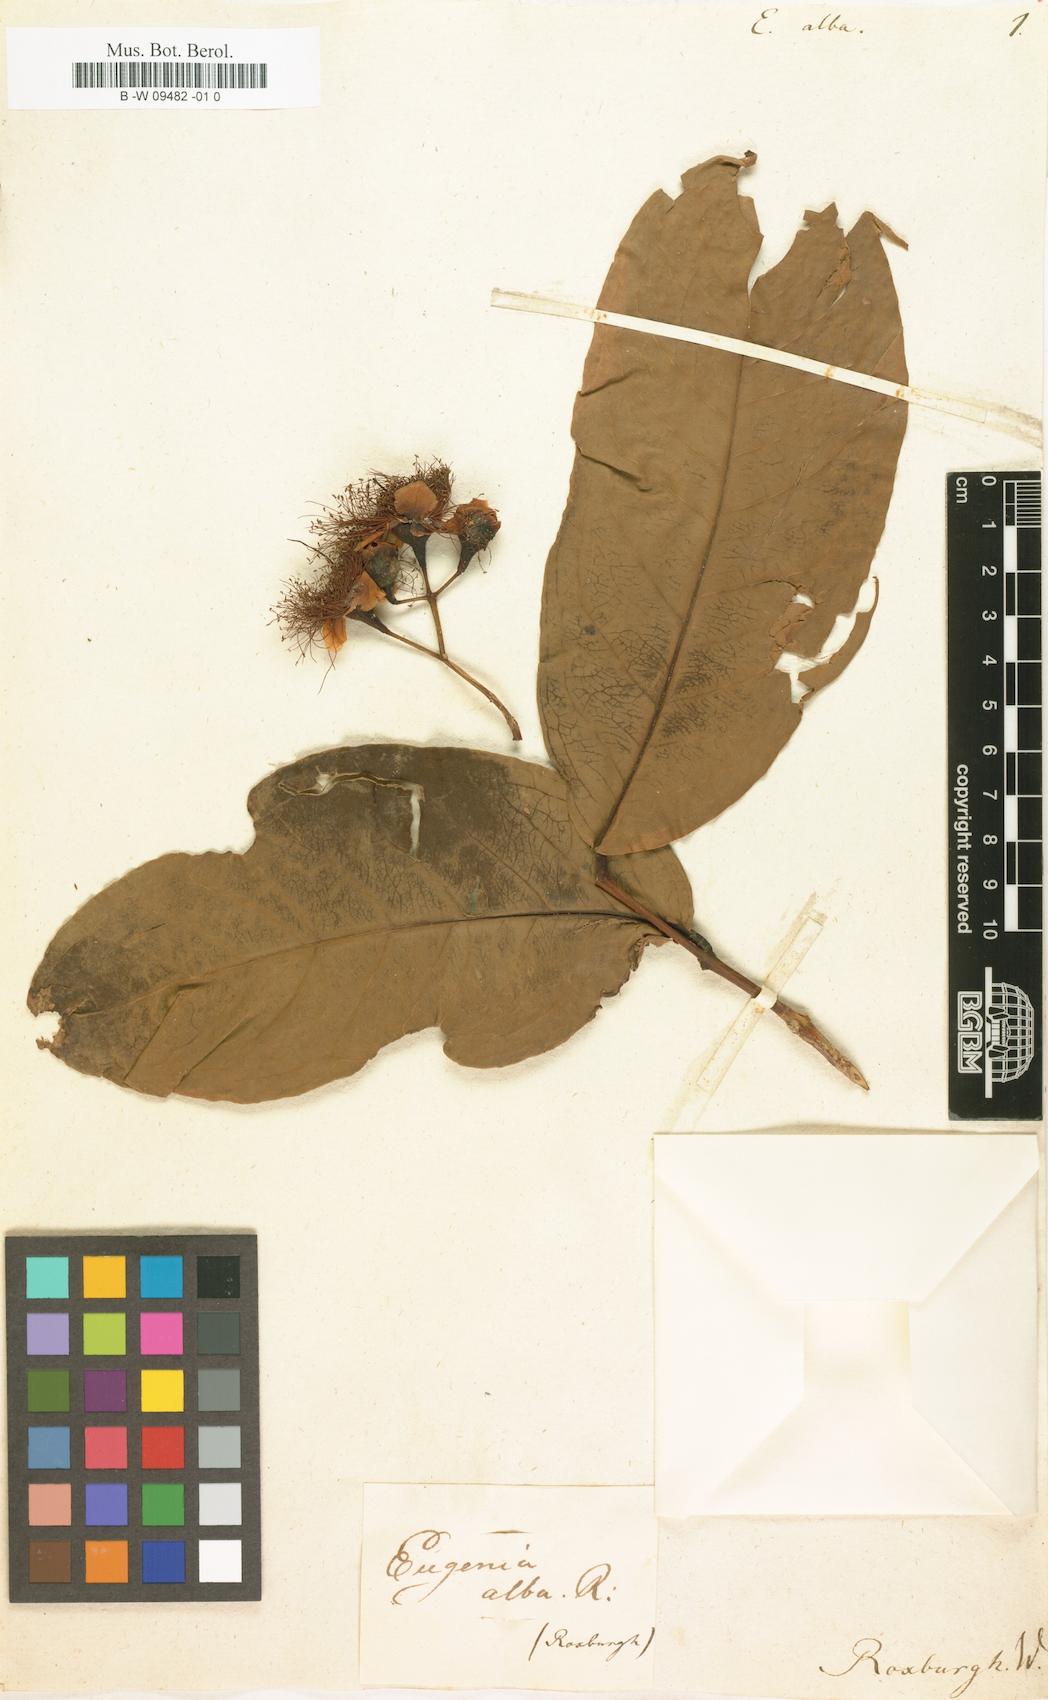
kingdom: Plantae
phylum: Tracheophyta
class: Magnoliopsida
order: Myrtales
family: Myrtaceae
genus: Syzygium
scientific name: Syzygium aqueum
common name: Water-apple
